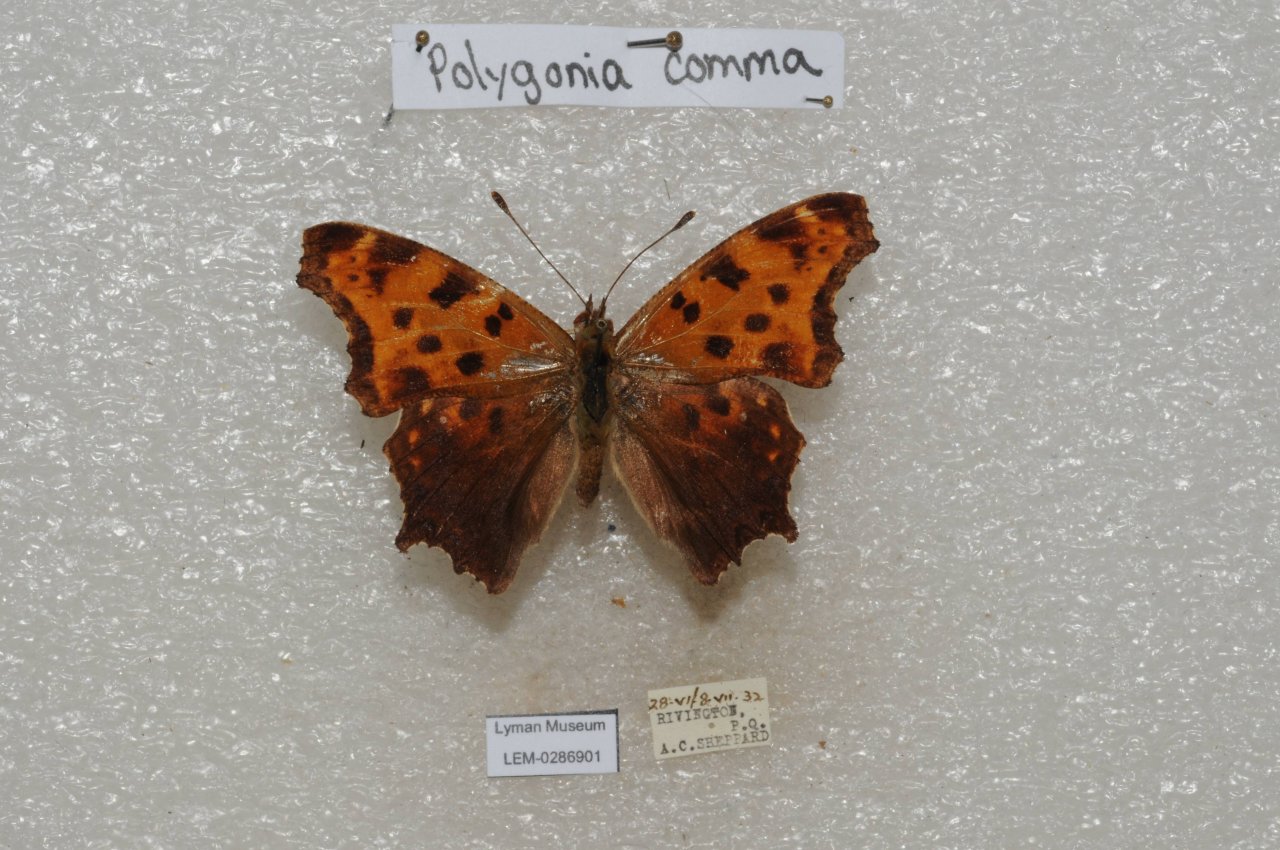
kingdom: Animalia
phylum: Arthropoda
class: Insecta
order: Lepidoptera
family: Nymphalidae
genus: Polygonia
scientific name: Polygonia comma
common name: Eastern Comma
